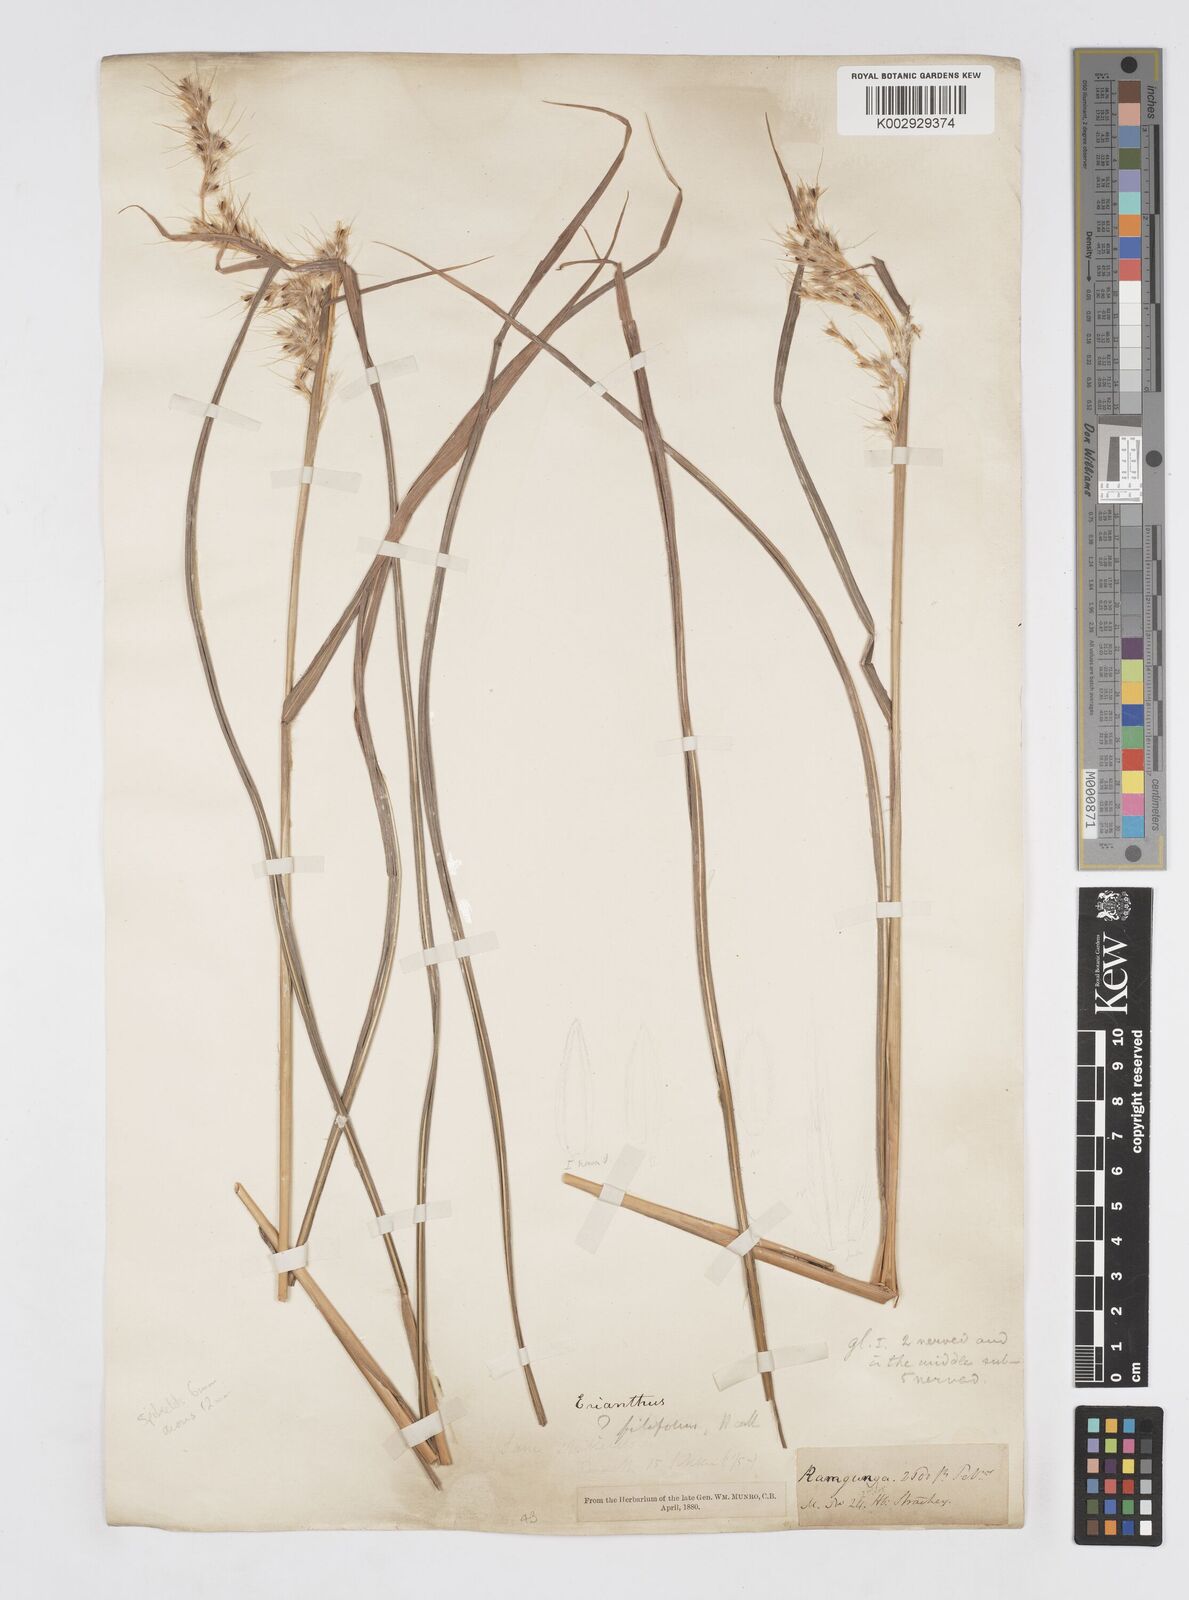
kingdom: Plantae
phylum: Tracheophyta
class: Liliopsida
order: Poales
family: Poaceae
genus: Saccharum
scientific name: Saccharum filifolium
